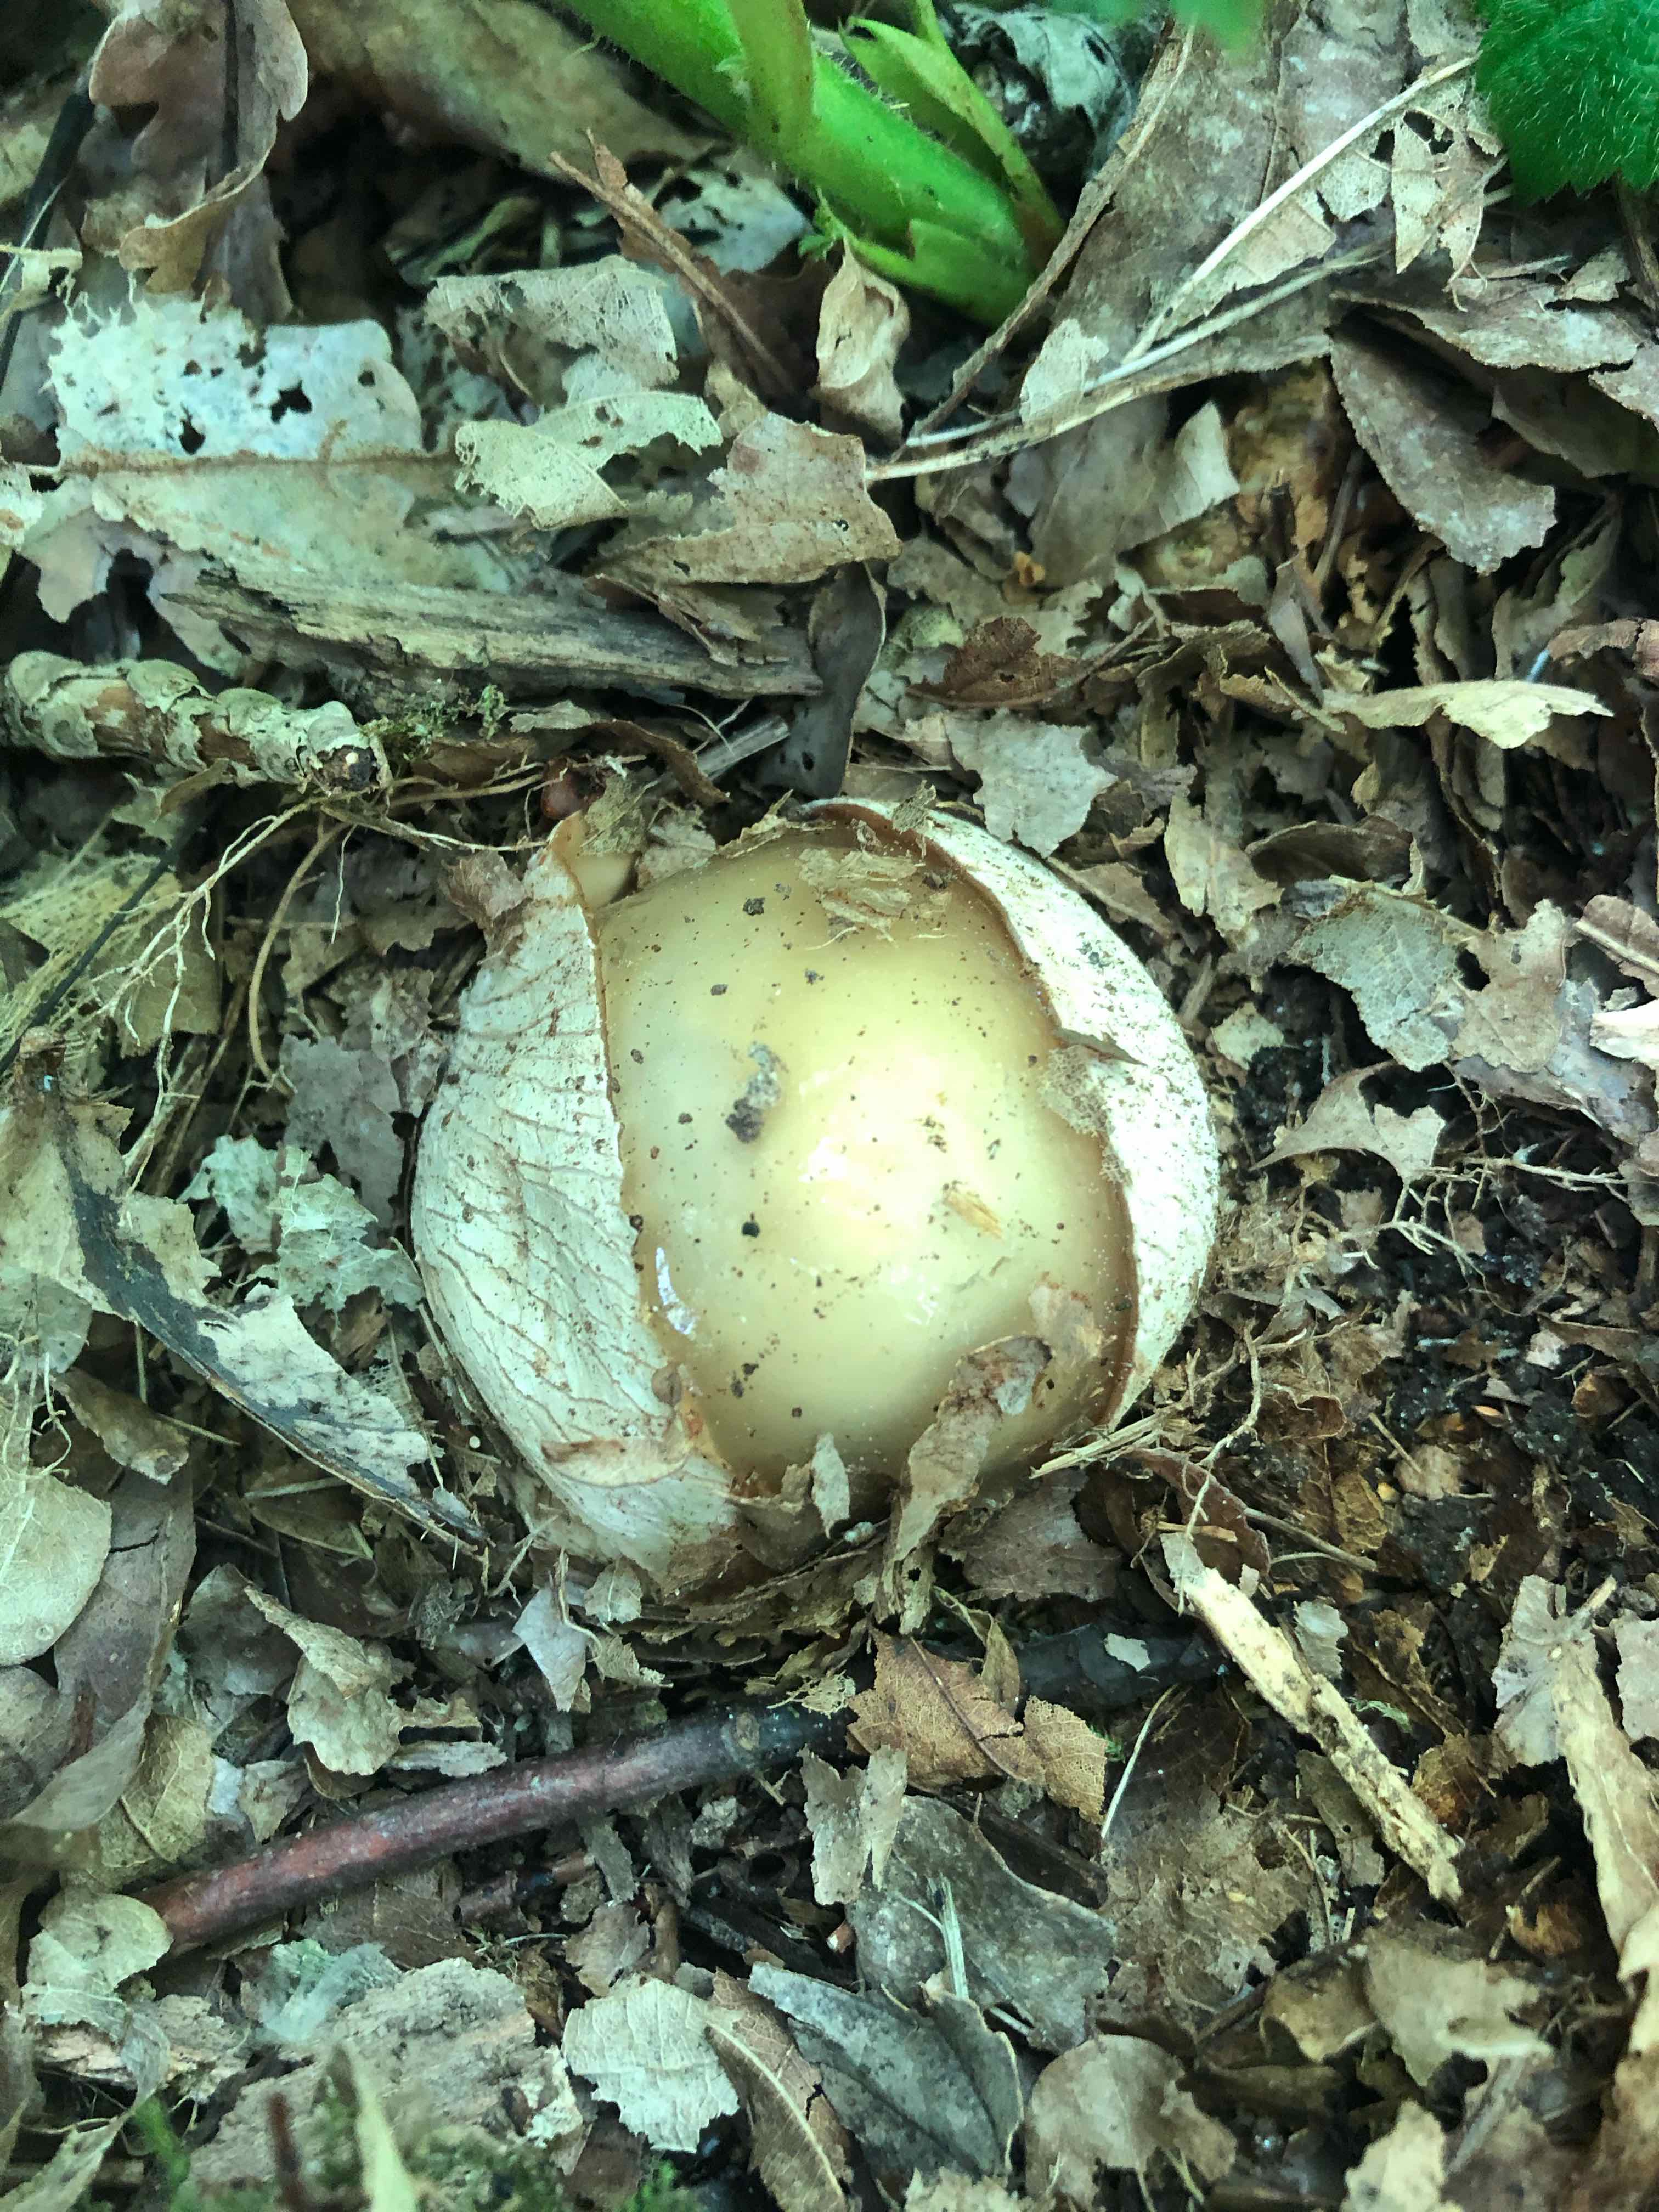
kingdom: Fungi
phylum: Basidiomycota
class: Agaricomycetes
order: Phallales
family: Phallaceae
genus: Phallus
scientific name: Phallus impudicus
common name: almindelig stinksvamp
